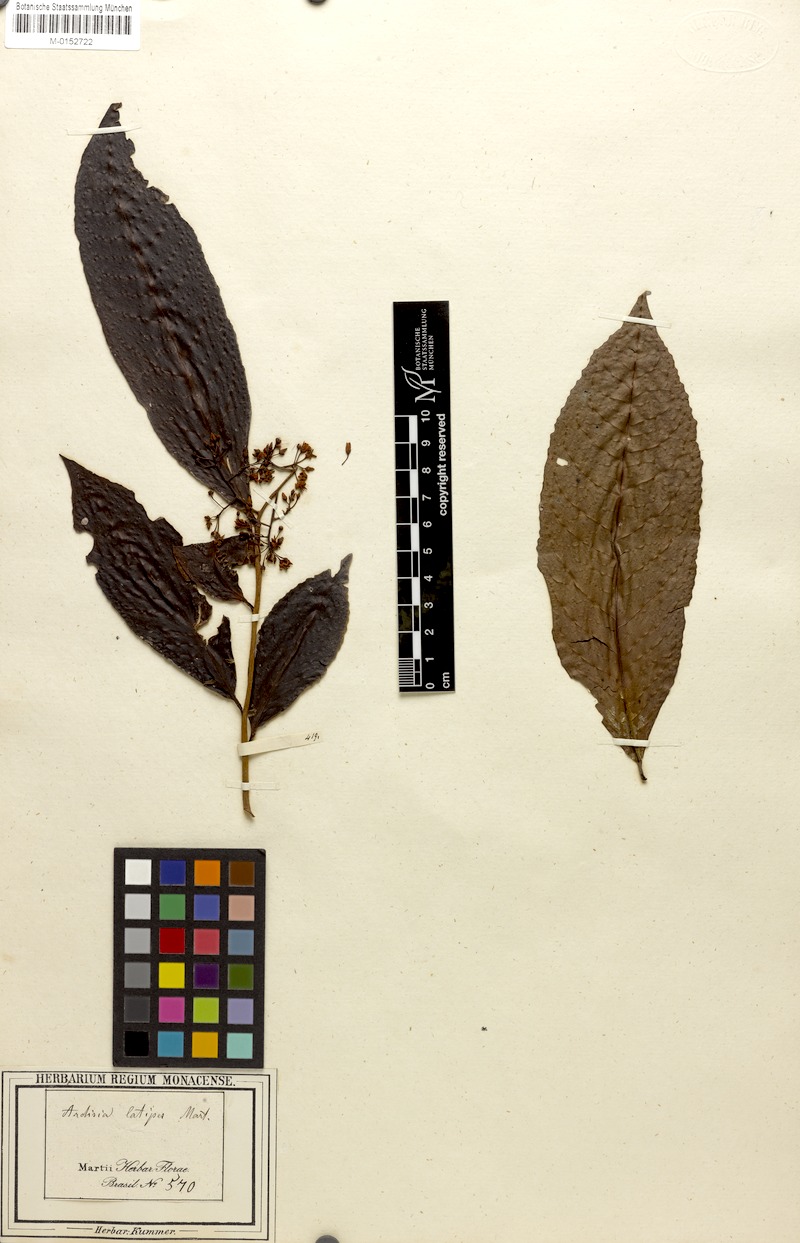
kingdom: Plantae
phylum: Tracheophyta
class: Magnoliopsida
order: Ericales
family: Primulaceae
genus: Stylogyne
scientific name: Stylogyne martiana
